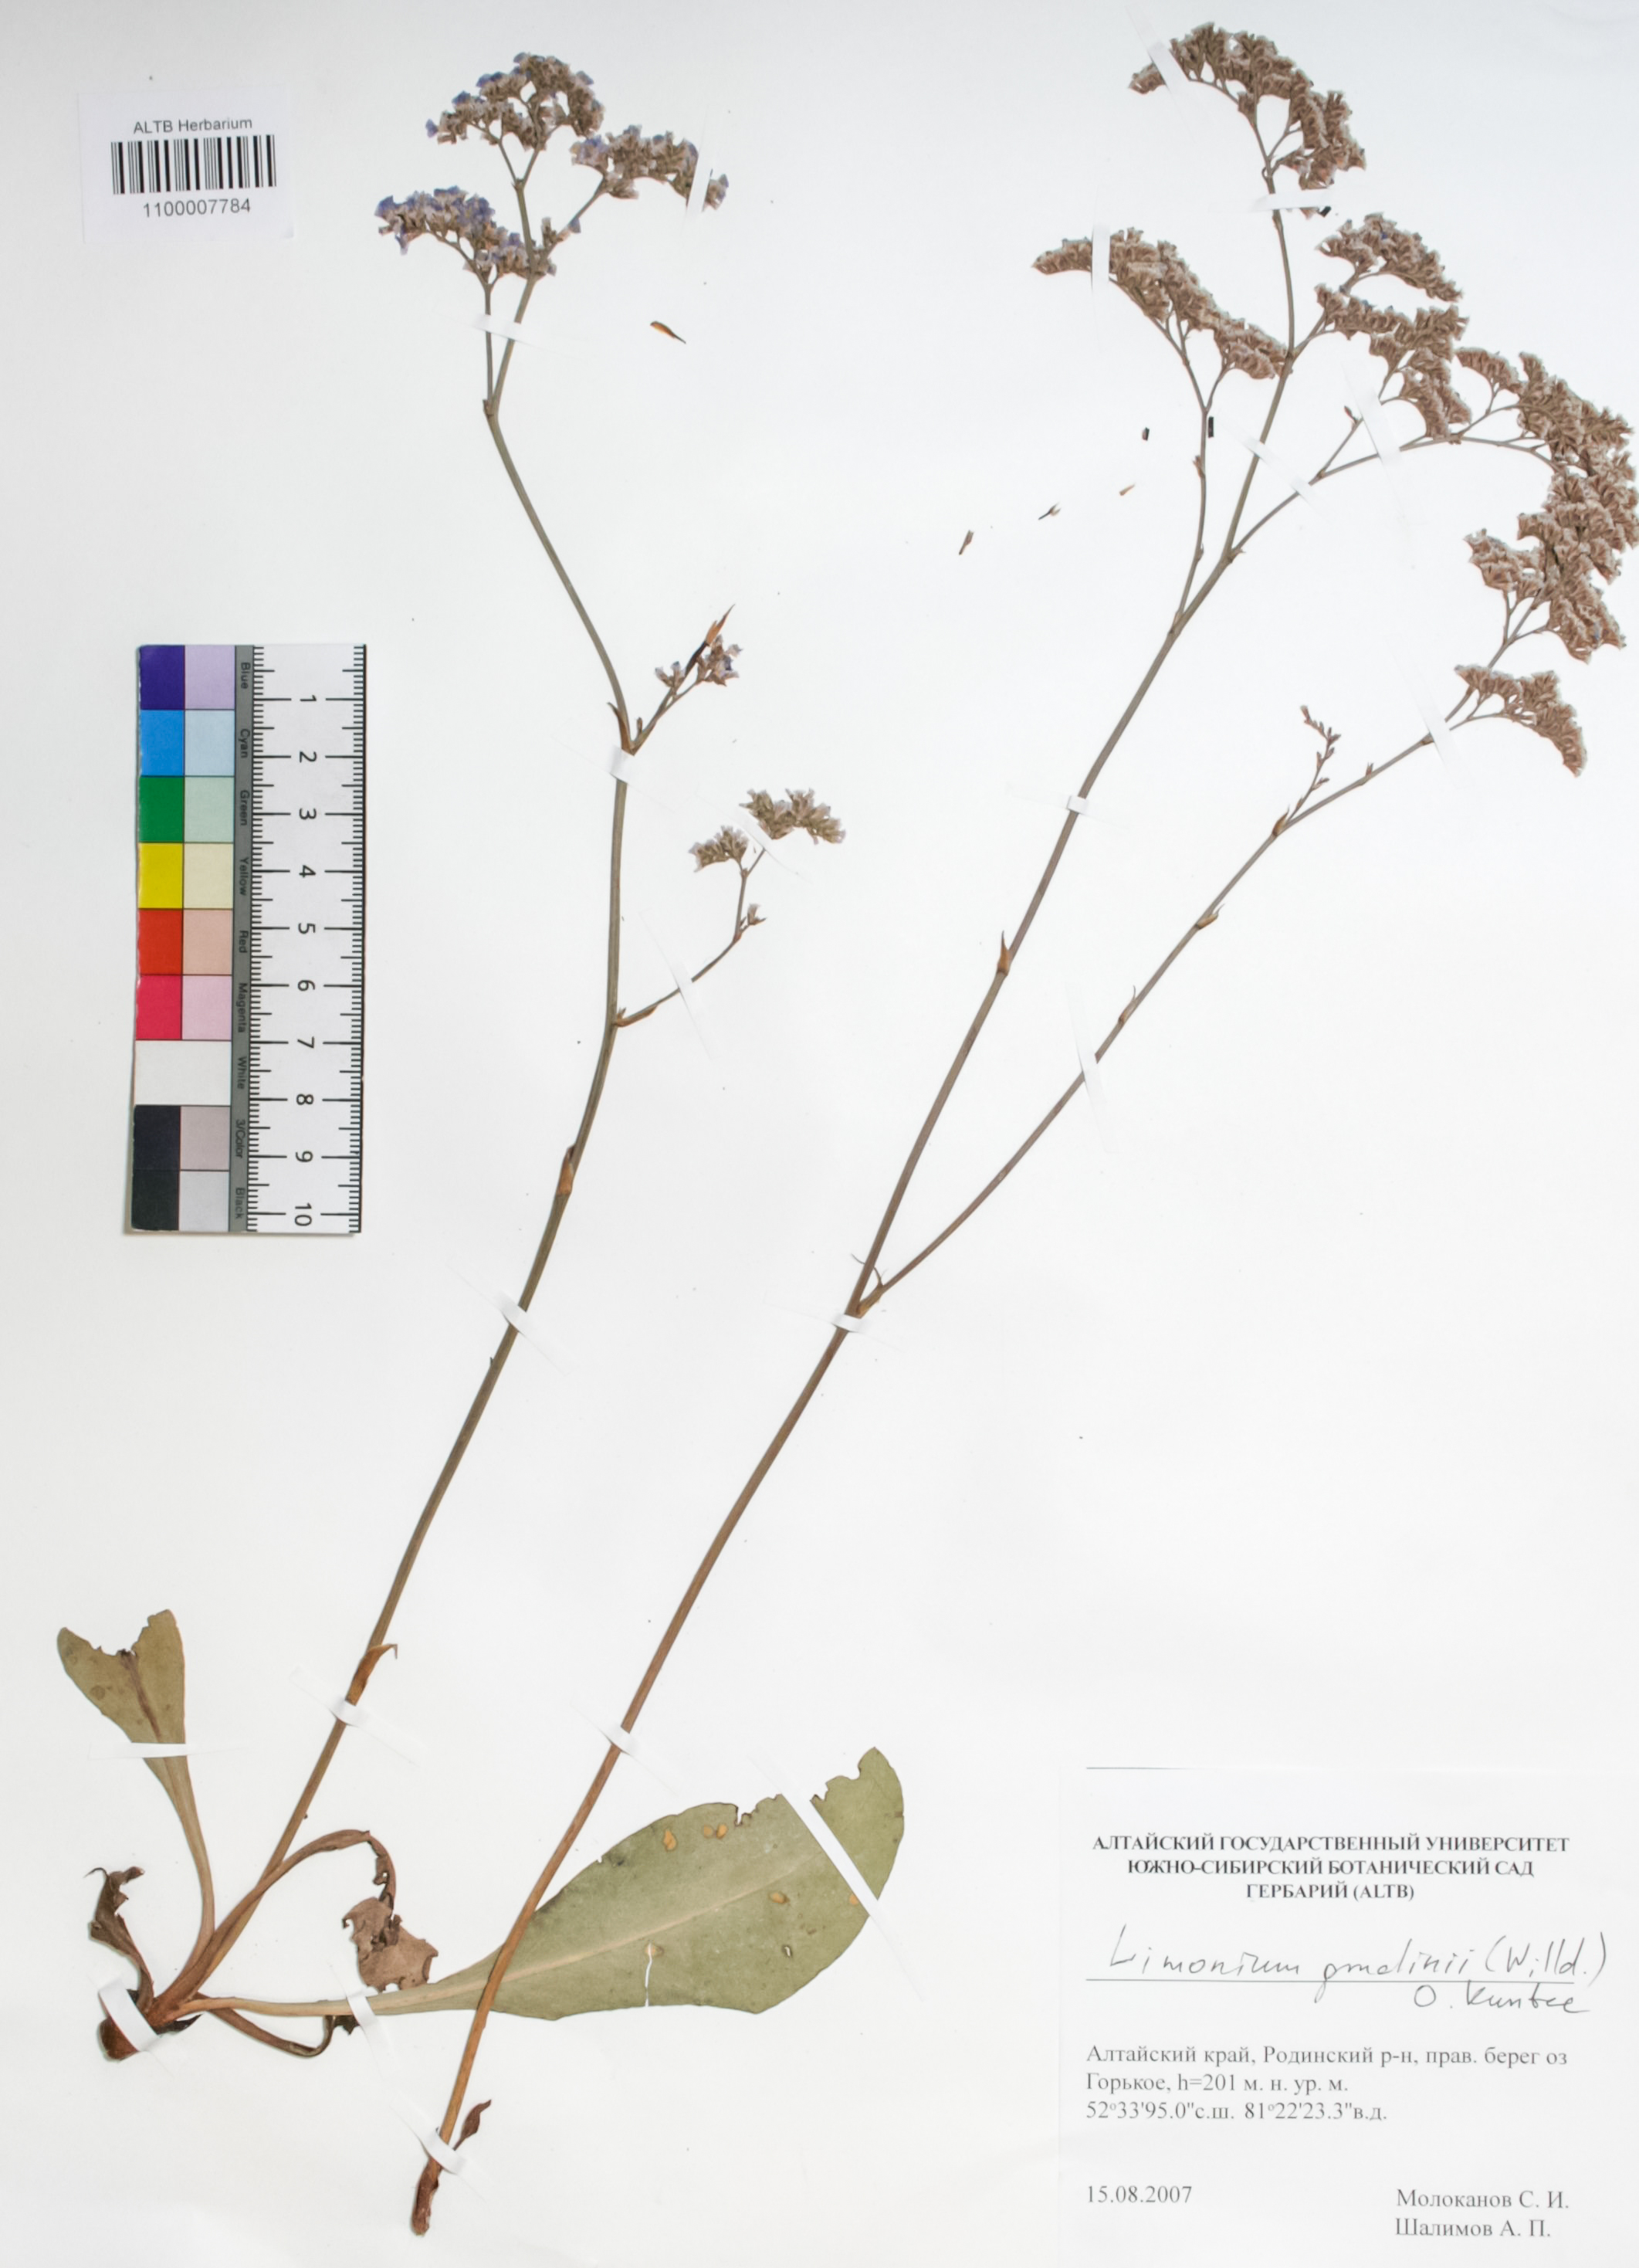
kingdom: Plantae
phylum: Tracheophyta
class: Magnoliopsida
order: Caryophyllales
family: Plumbaginaceae
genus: Limonium
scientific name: Limonium gmelini
